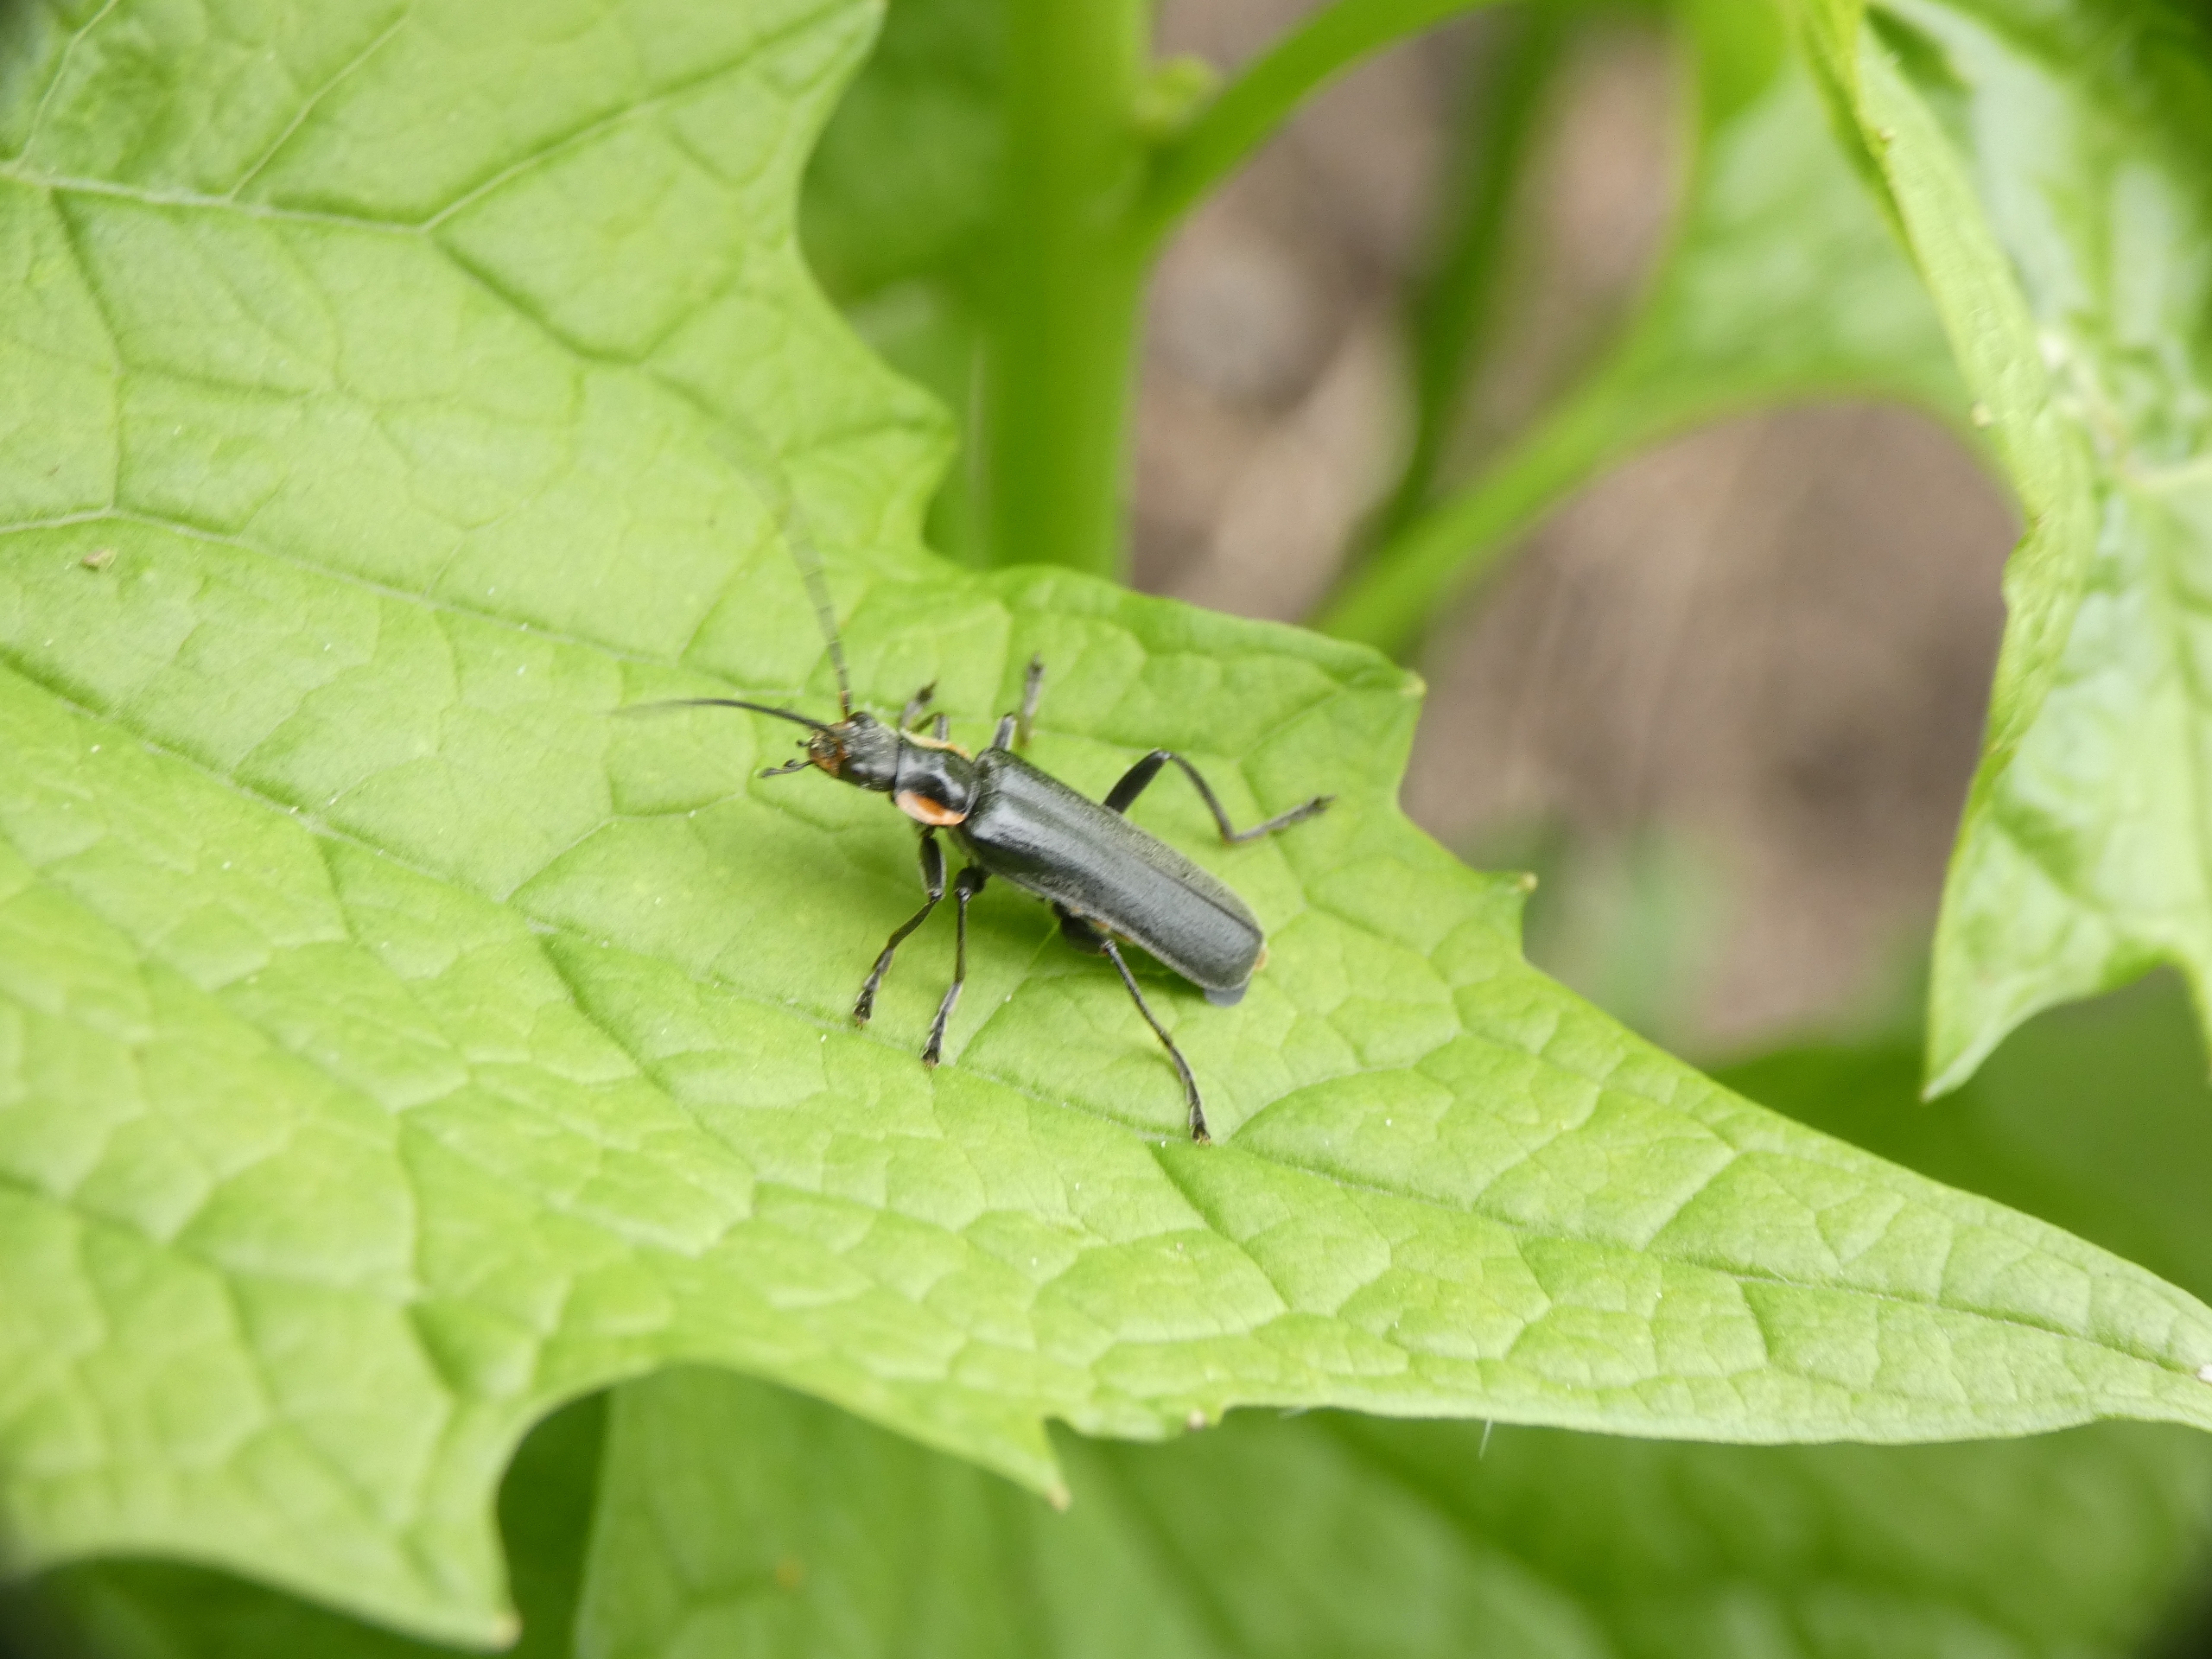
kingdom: Animalia
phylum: Arthropoda
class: Insecta
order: Coleoptera
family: Cantharidae
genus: Cantharis
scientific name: Cantharis obscura
